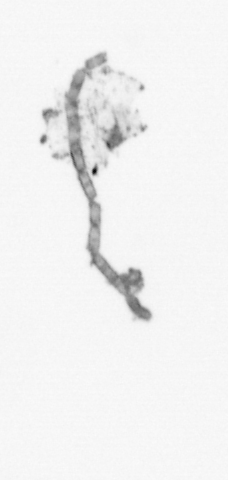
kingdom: Chromista
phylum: Ochrophyta
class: Bacillariophyceae
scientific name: Bacillariophyceae
